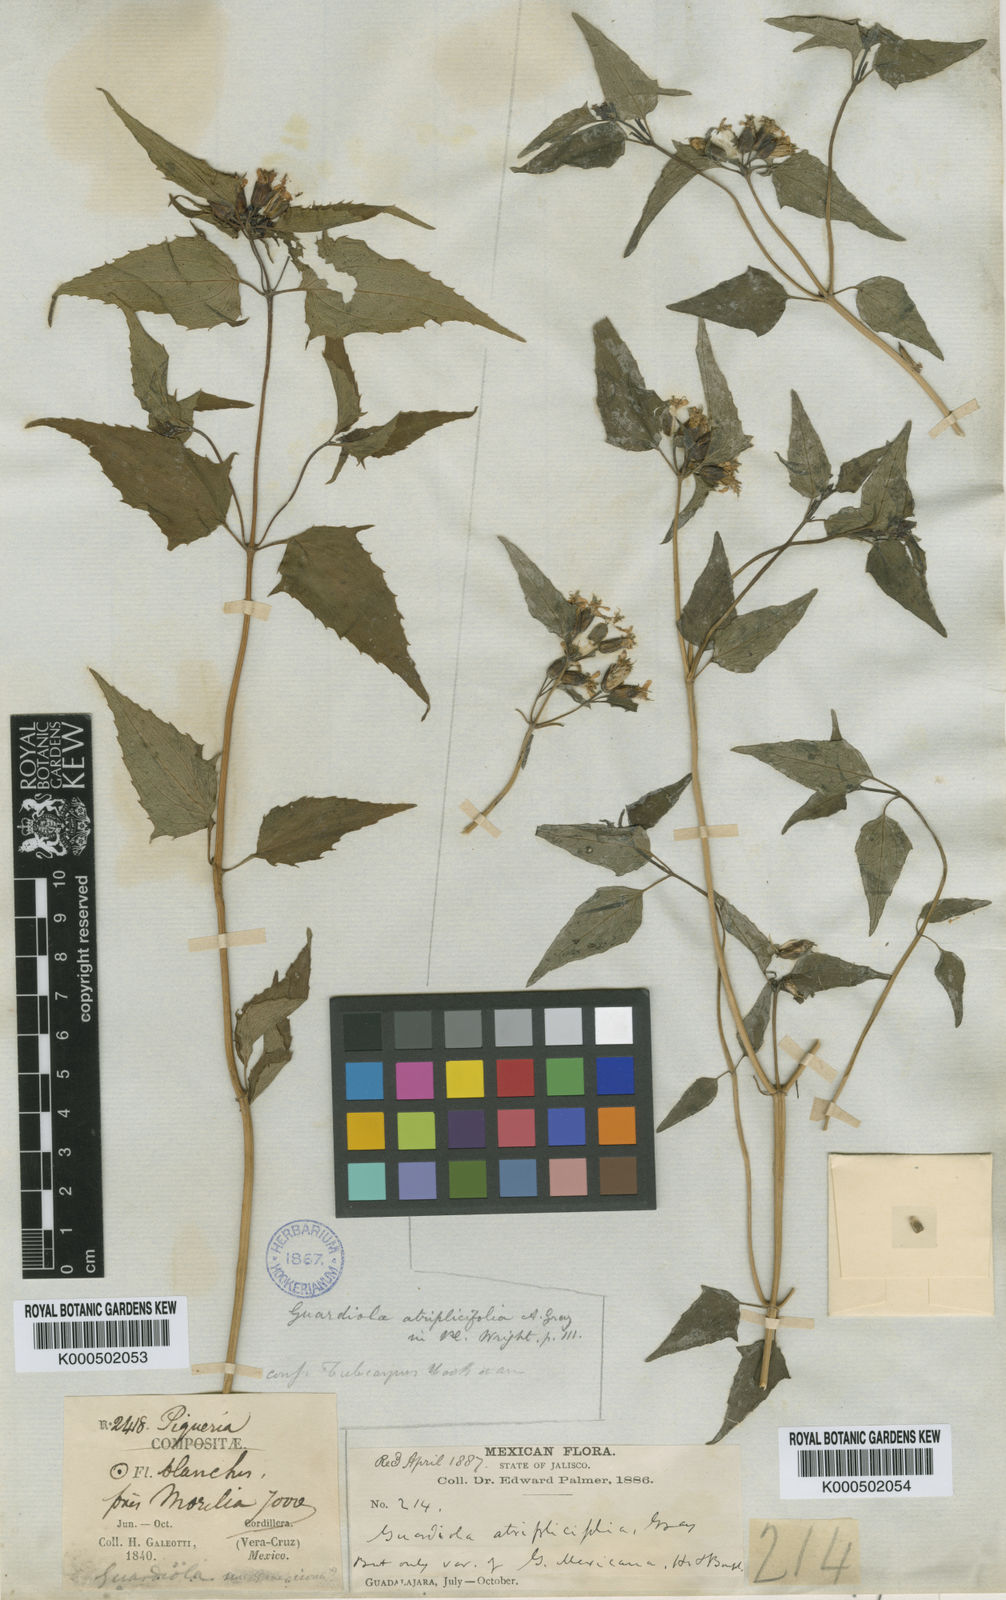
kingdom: Plantae
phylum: Tracheophyta
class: Magnoliopsida
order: Asterales
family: Asteraceae
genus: Guardiola
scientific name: Guardiola mexicana
